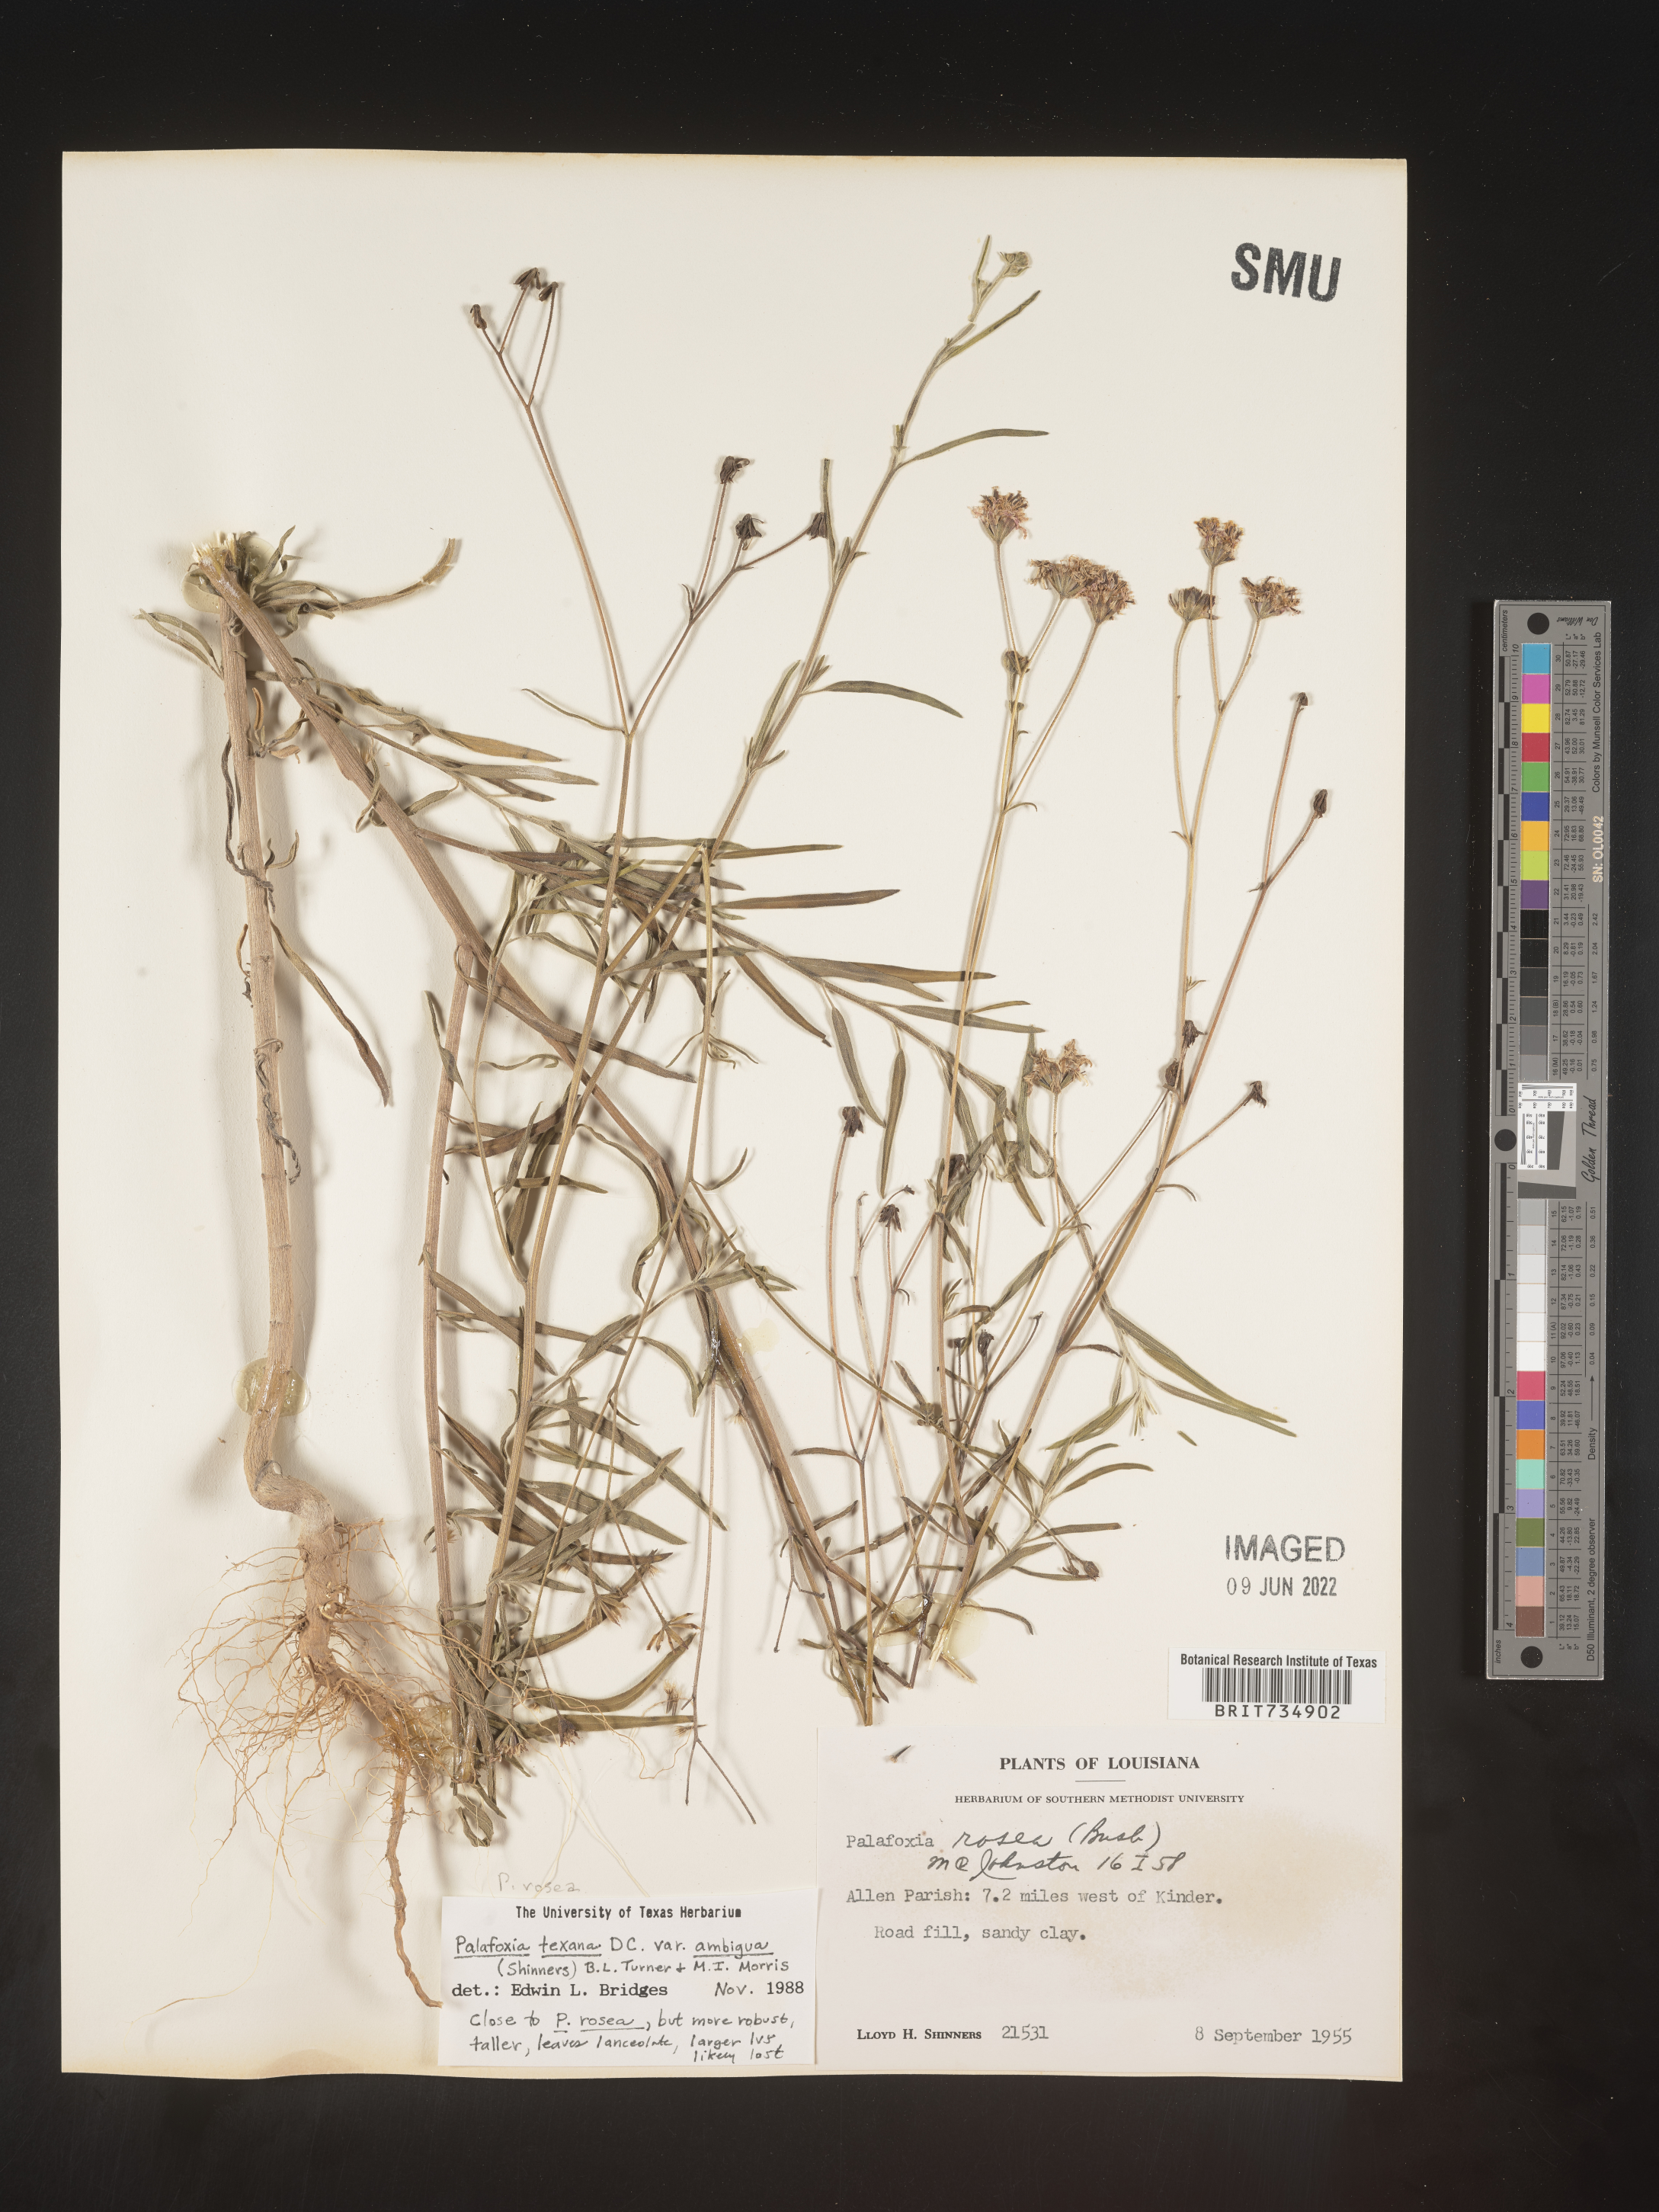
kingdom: Plantae
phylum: Tracheophyta
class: Magnoliopsida
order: Asterales
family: Asteraceae
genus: Palafoxia
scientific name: Palafoxia rosea
